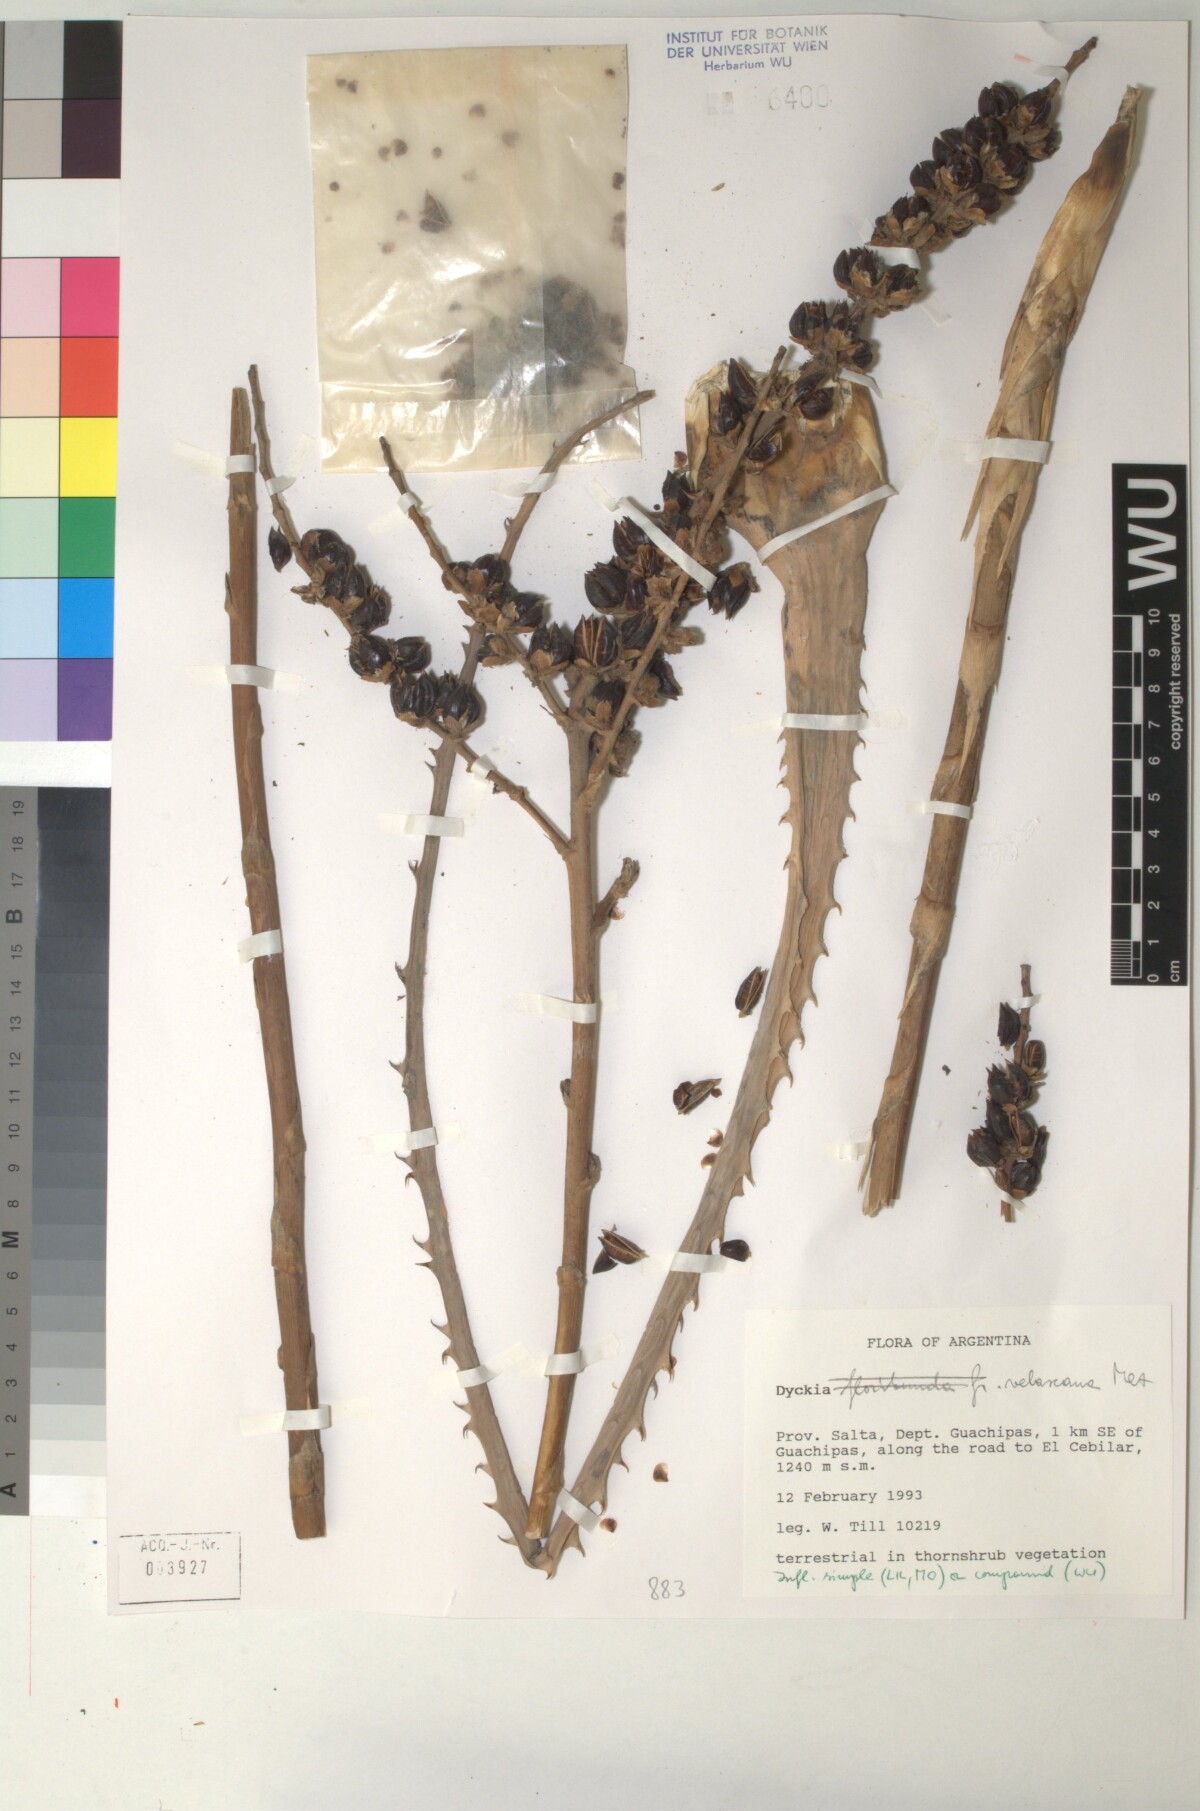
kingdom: Plantae
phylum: Tracheophyta
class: Liliopsida
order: Poales
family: Bromeliaceae
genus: Dyckia
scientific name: Dyckia velascana
